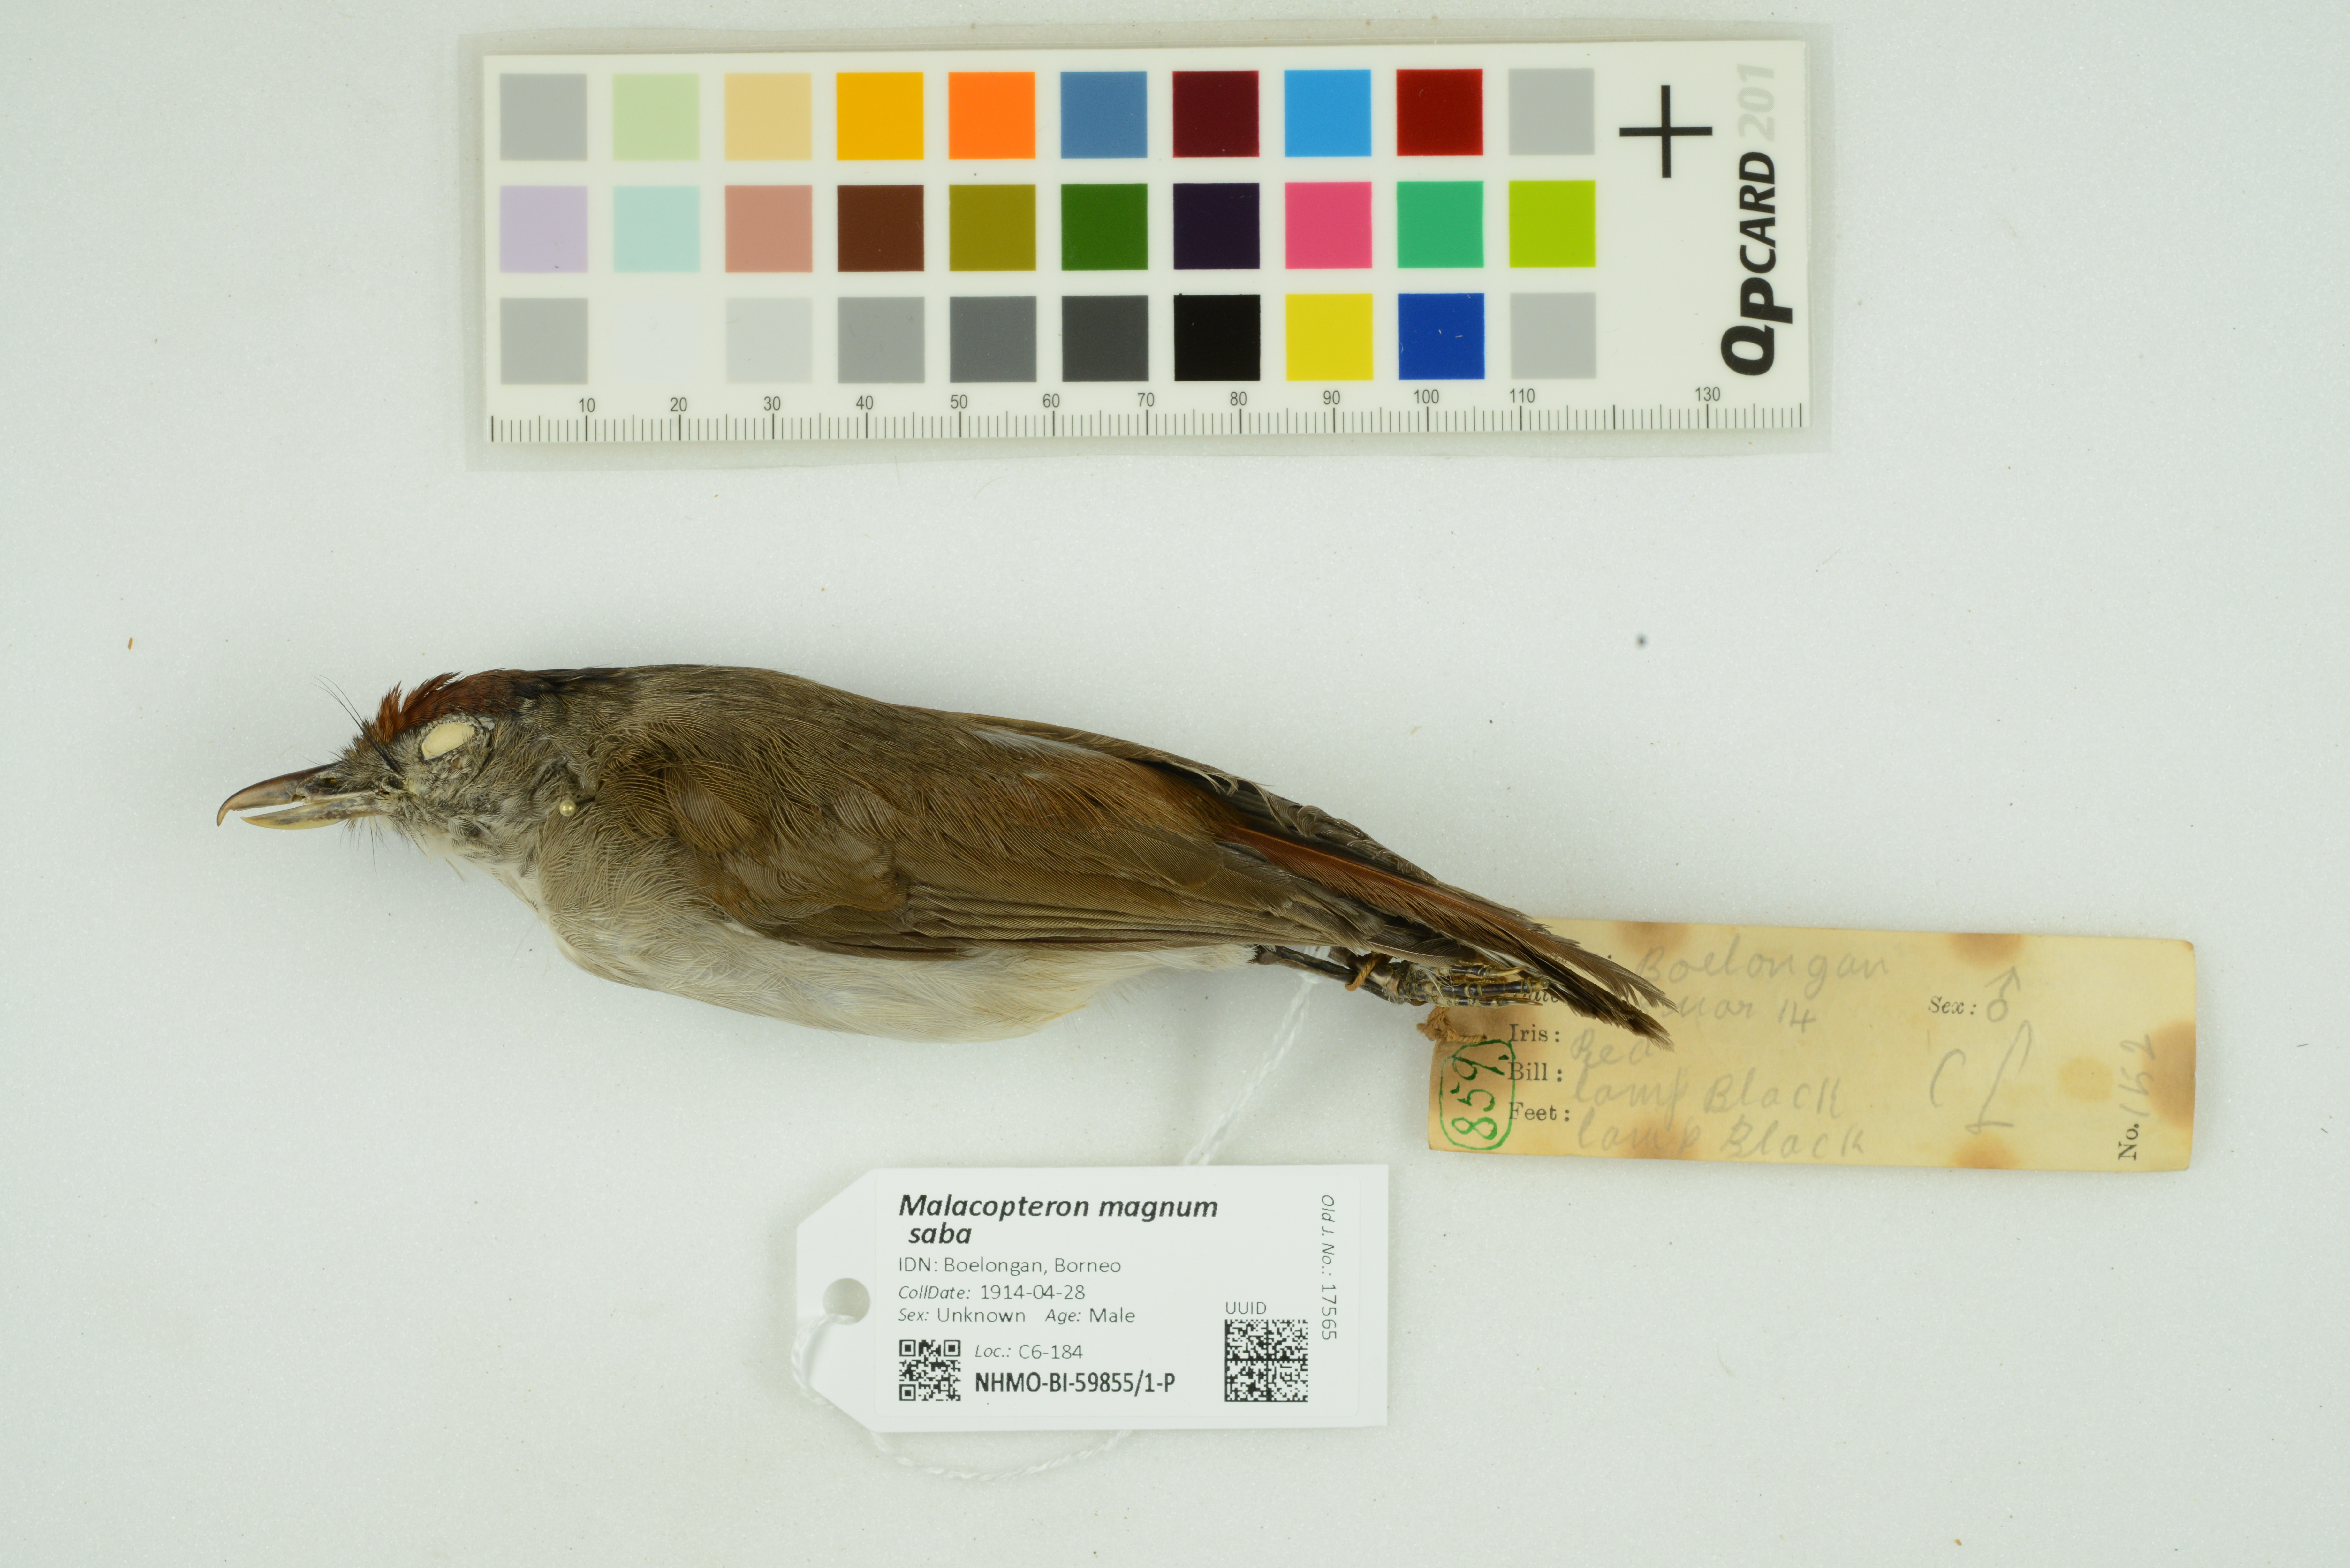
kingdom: Animalia
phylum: Chordata
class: Aves
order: Passeriformes
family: Pellorneidae
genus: Malacopteron
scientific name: Malacopteron magnum
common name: Rufous-crowned babbler
